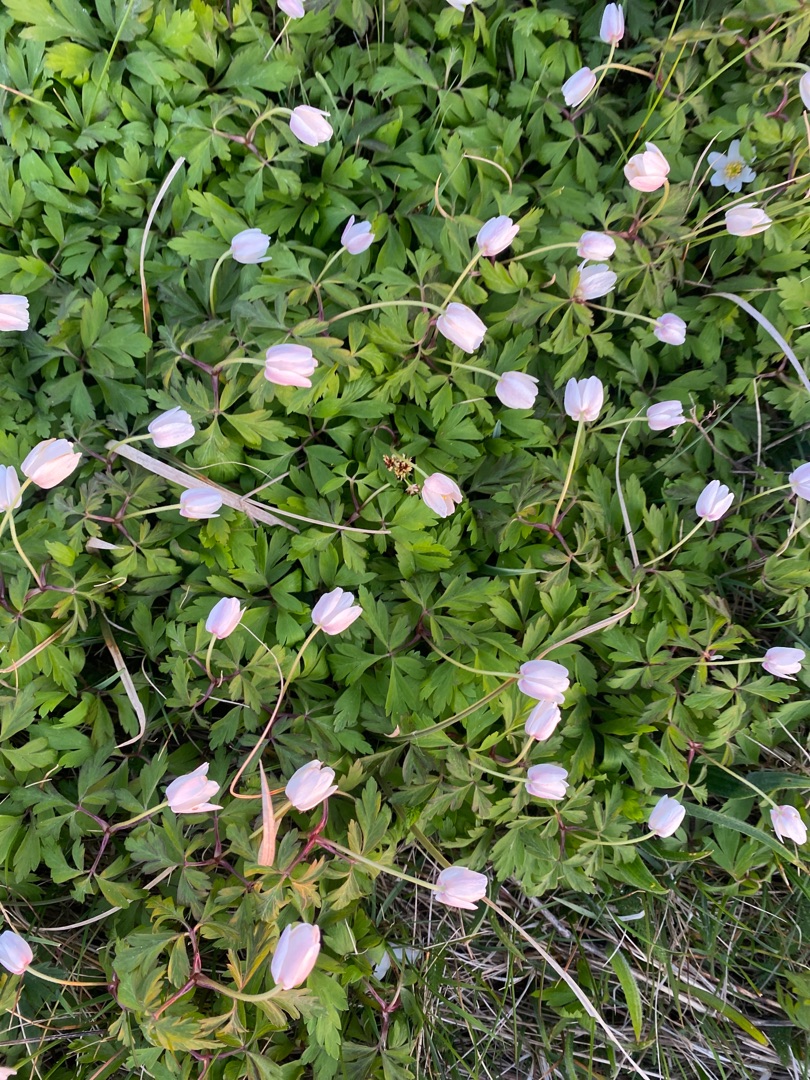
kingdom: Plantae
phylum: Tracheophyta
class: Magnoliopsida
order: Ranunculales
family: Ranunculaceae
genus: Anemone
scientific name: Anemone nemorosa
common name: Hvid anemone
